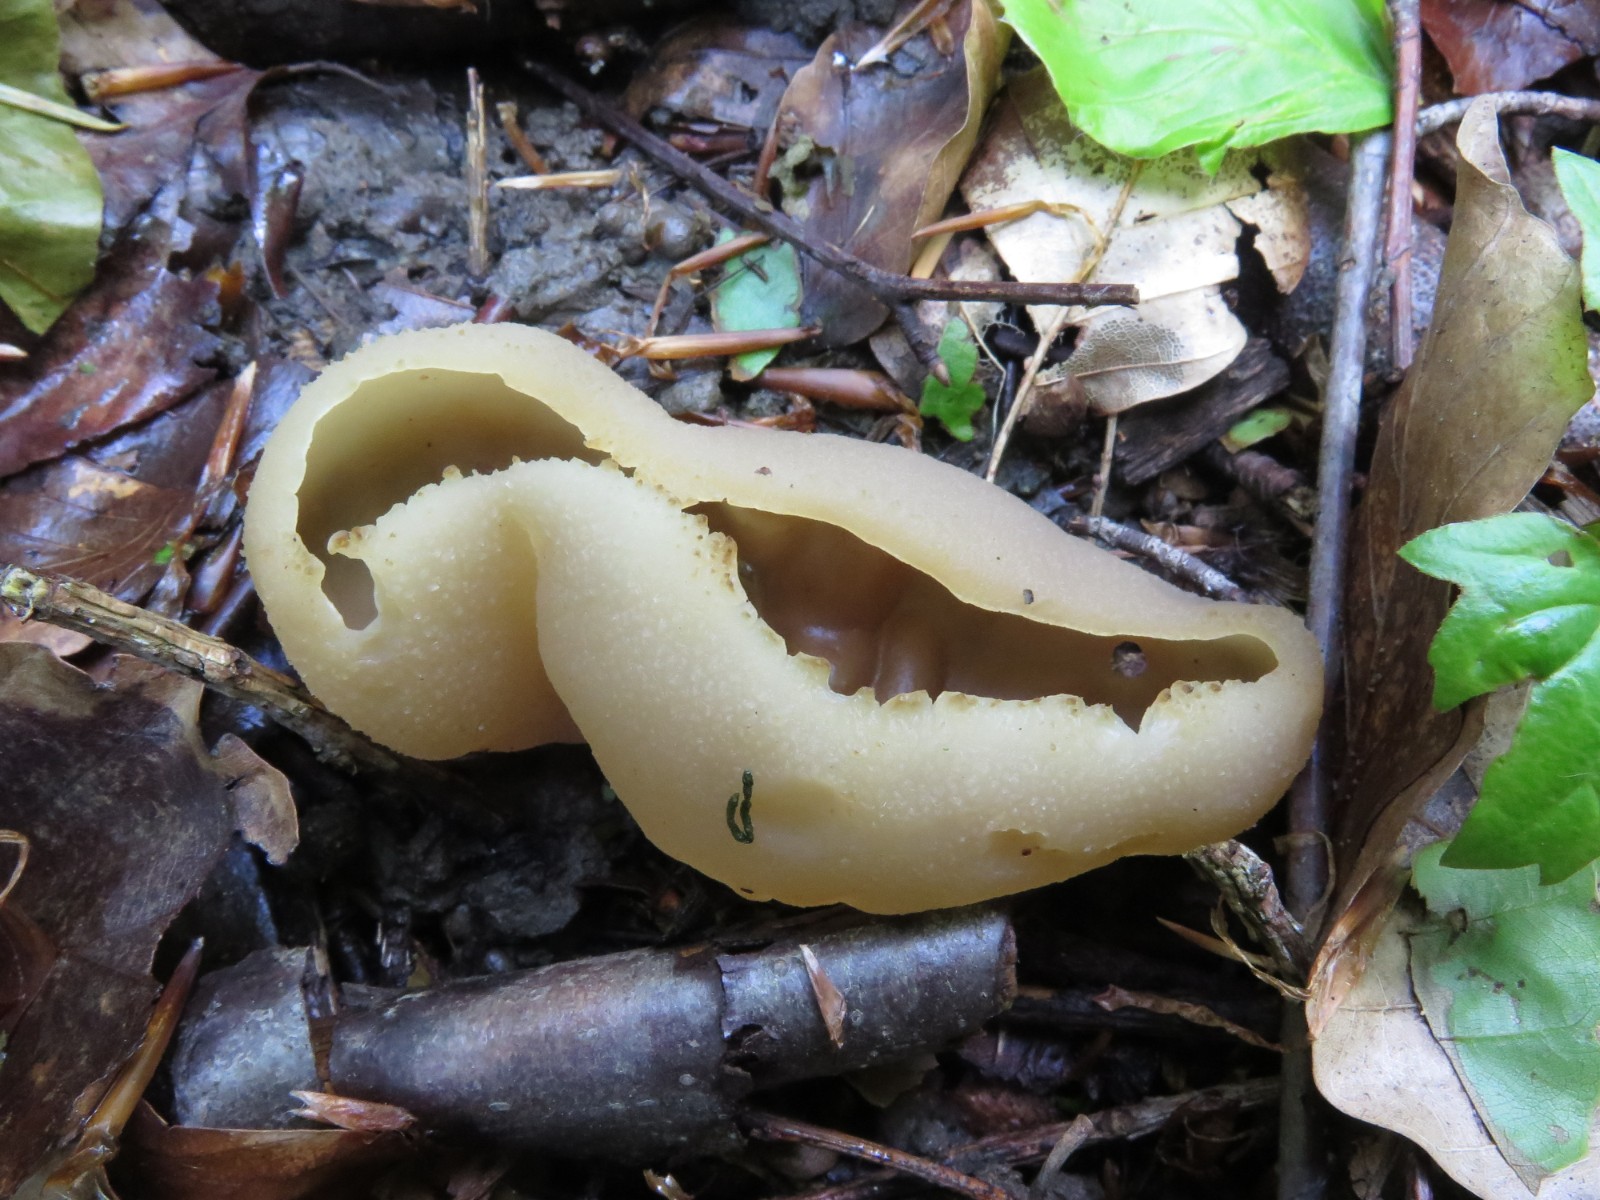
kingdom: Fungi
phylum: Ascomycota
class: Pezizomycetes
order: Pezizales
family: Pezizaceae
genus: Peziza
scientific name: Peziza varia
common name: Ved-bægersvamp
